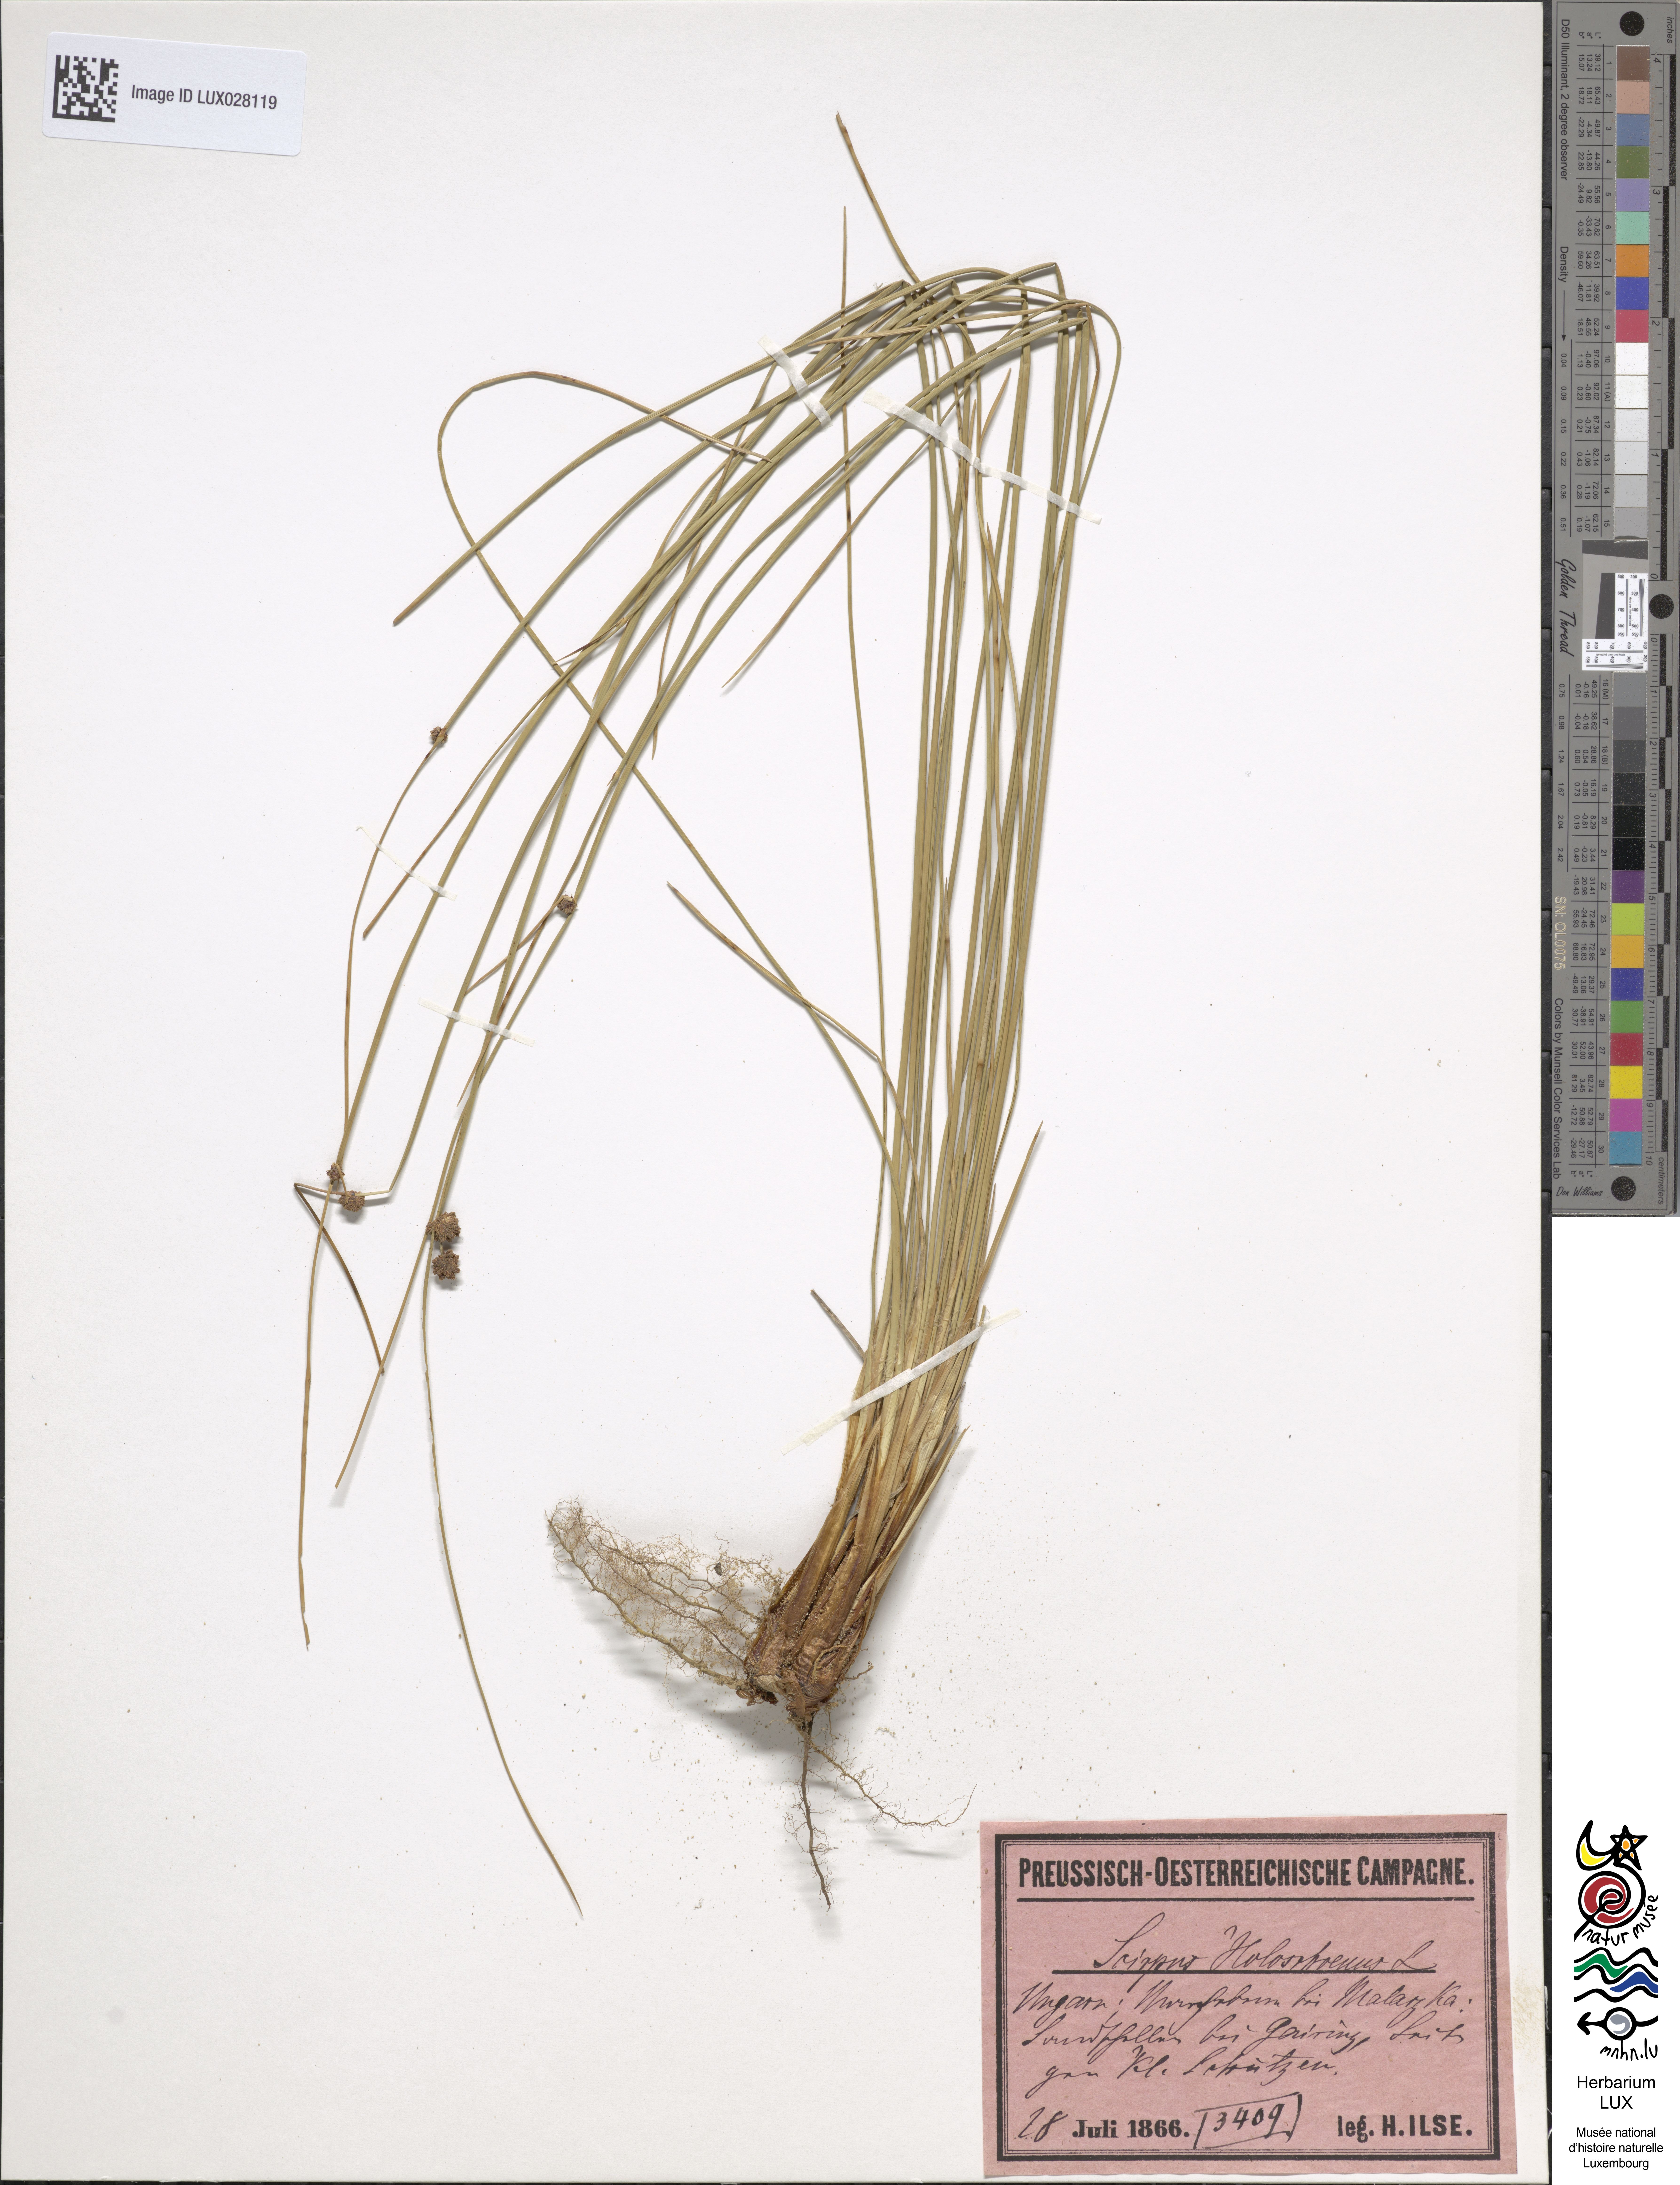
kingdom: Plantae
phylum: Tracheophyta
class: Liliopsida
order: Poales
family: Cyperaceae
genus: Scirpoides
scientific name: Scirpoides holoschoenus
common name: Round-headed club-rush
